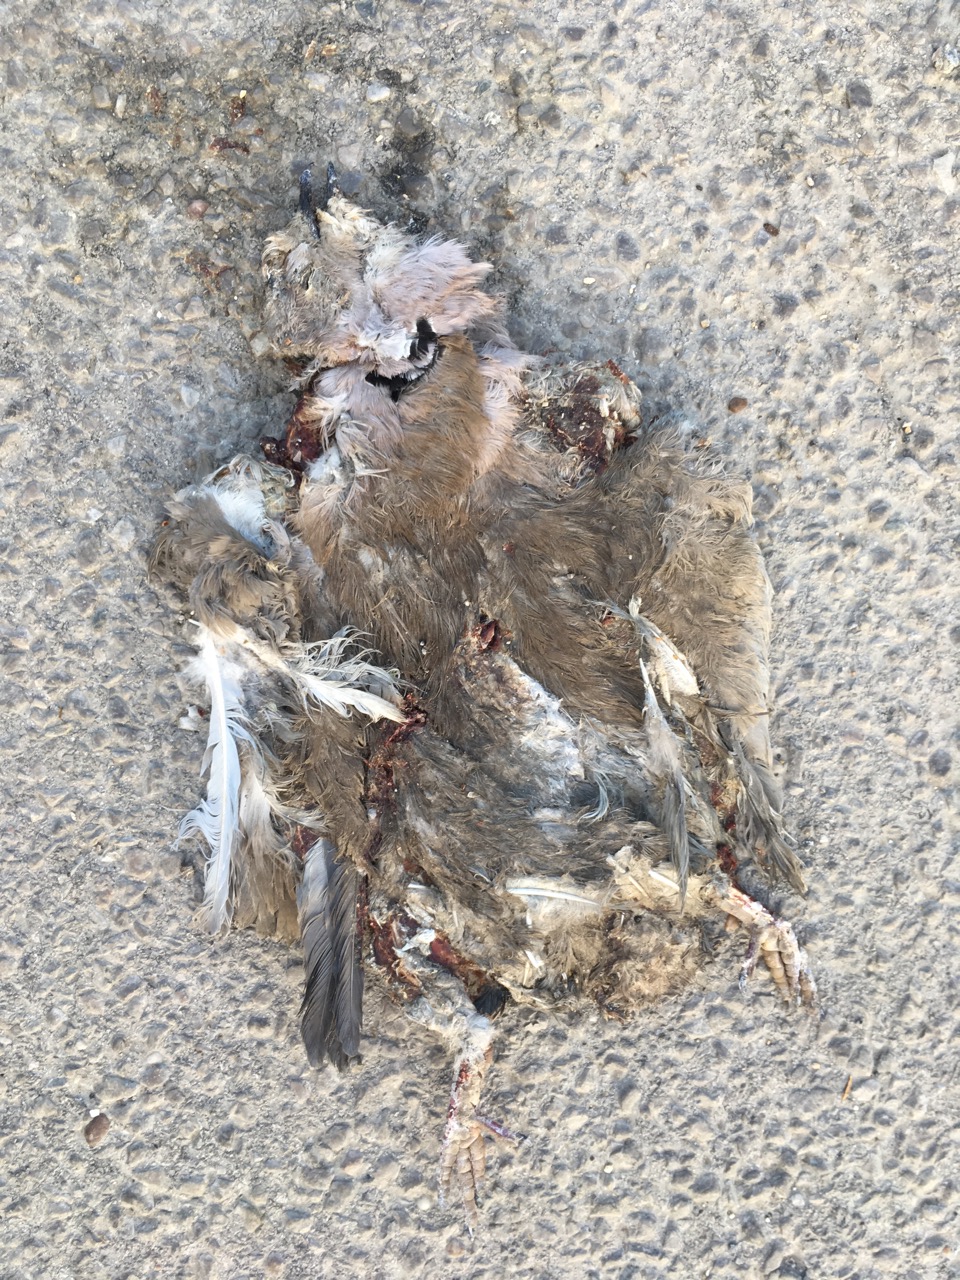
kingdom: Animalia
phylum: Chordata
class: Aves
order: Columbiformes
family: Columbidae
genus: Streptopelia
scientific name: Streptopelia decaocto
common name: Eurasian collared dove
